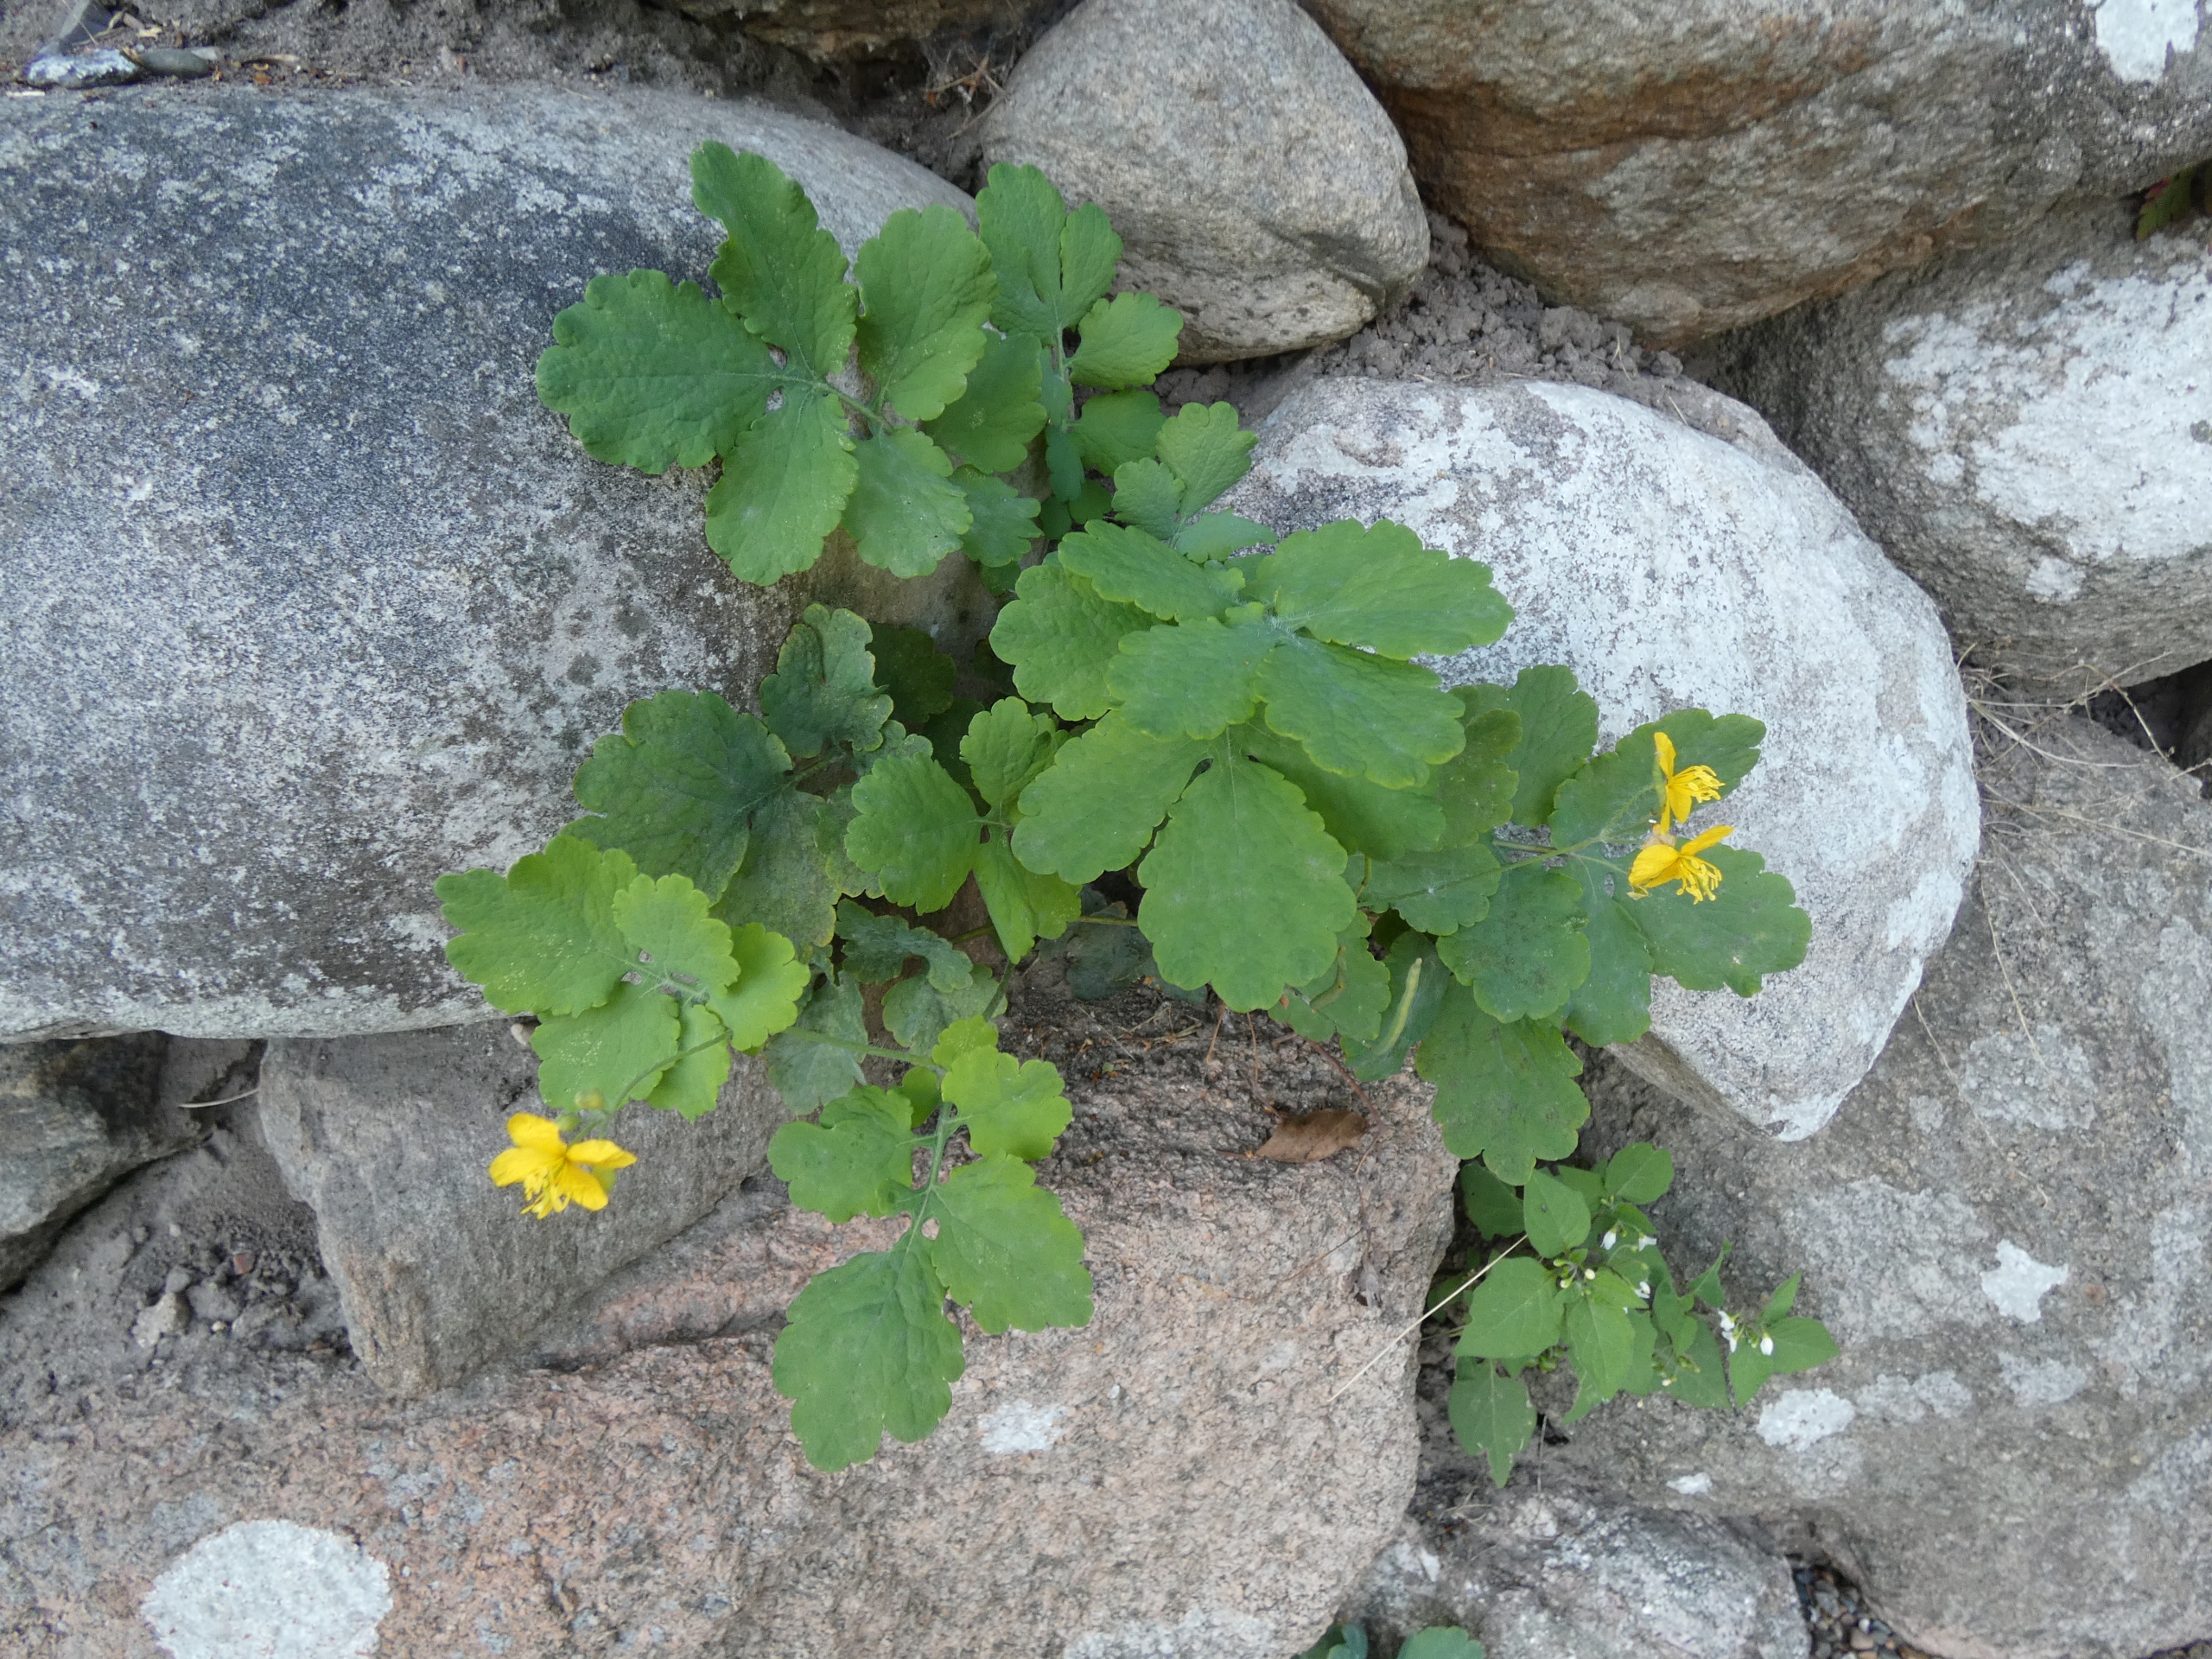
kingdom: Plantae
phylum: Tracheophyta
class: Magnoliopsida
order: Ranunculales
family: Papaveraceae
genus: Chelidonium
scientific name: Chelidonium majus
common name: Svaleurt
